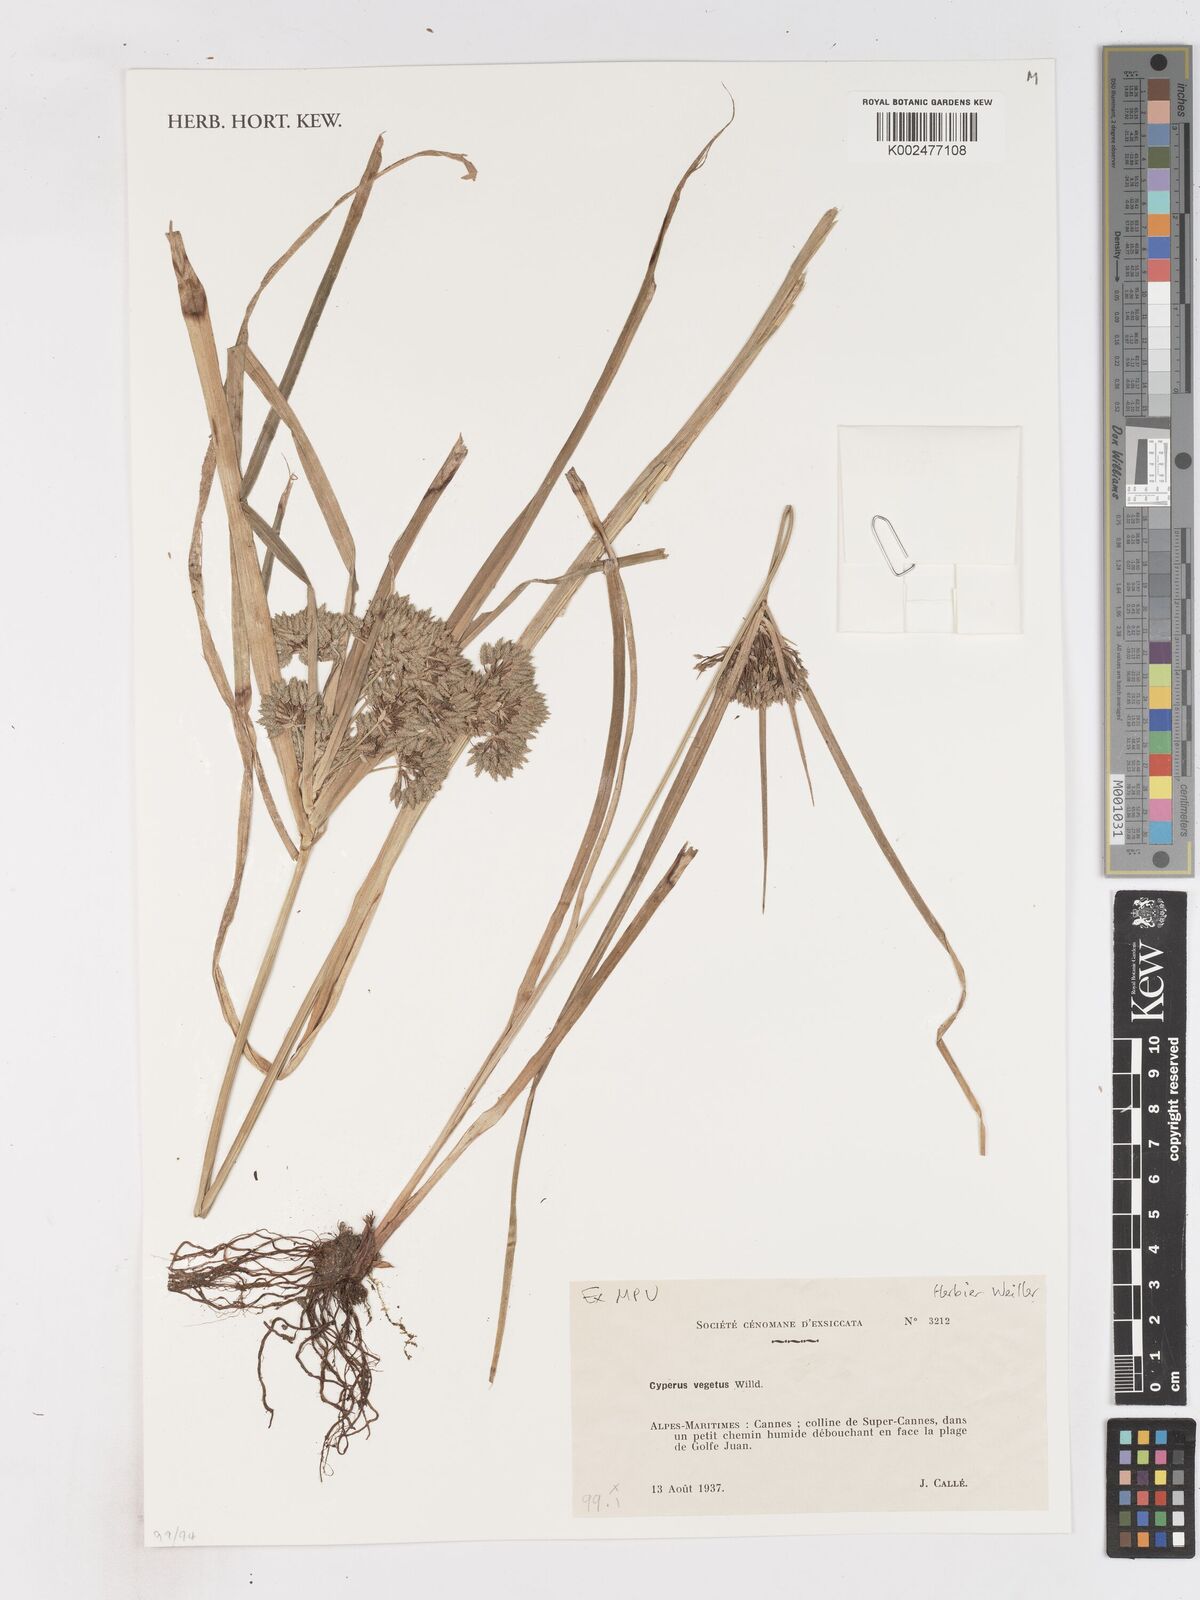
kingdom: Plantae
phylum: Tracheophyta
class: Liliopsida
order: Poales
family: Cyperaceae
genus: Cyperus
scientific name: Cyperus eragrostis
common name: Tall flatsedge
